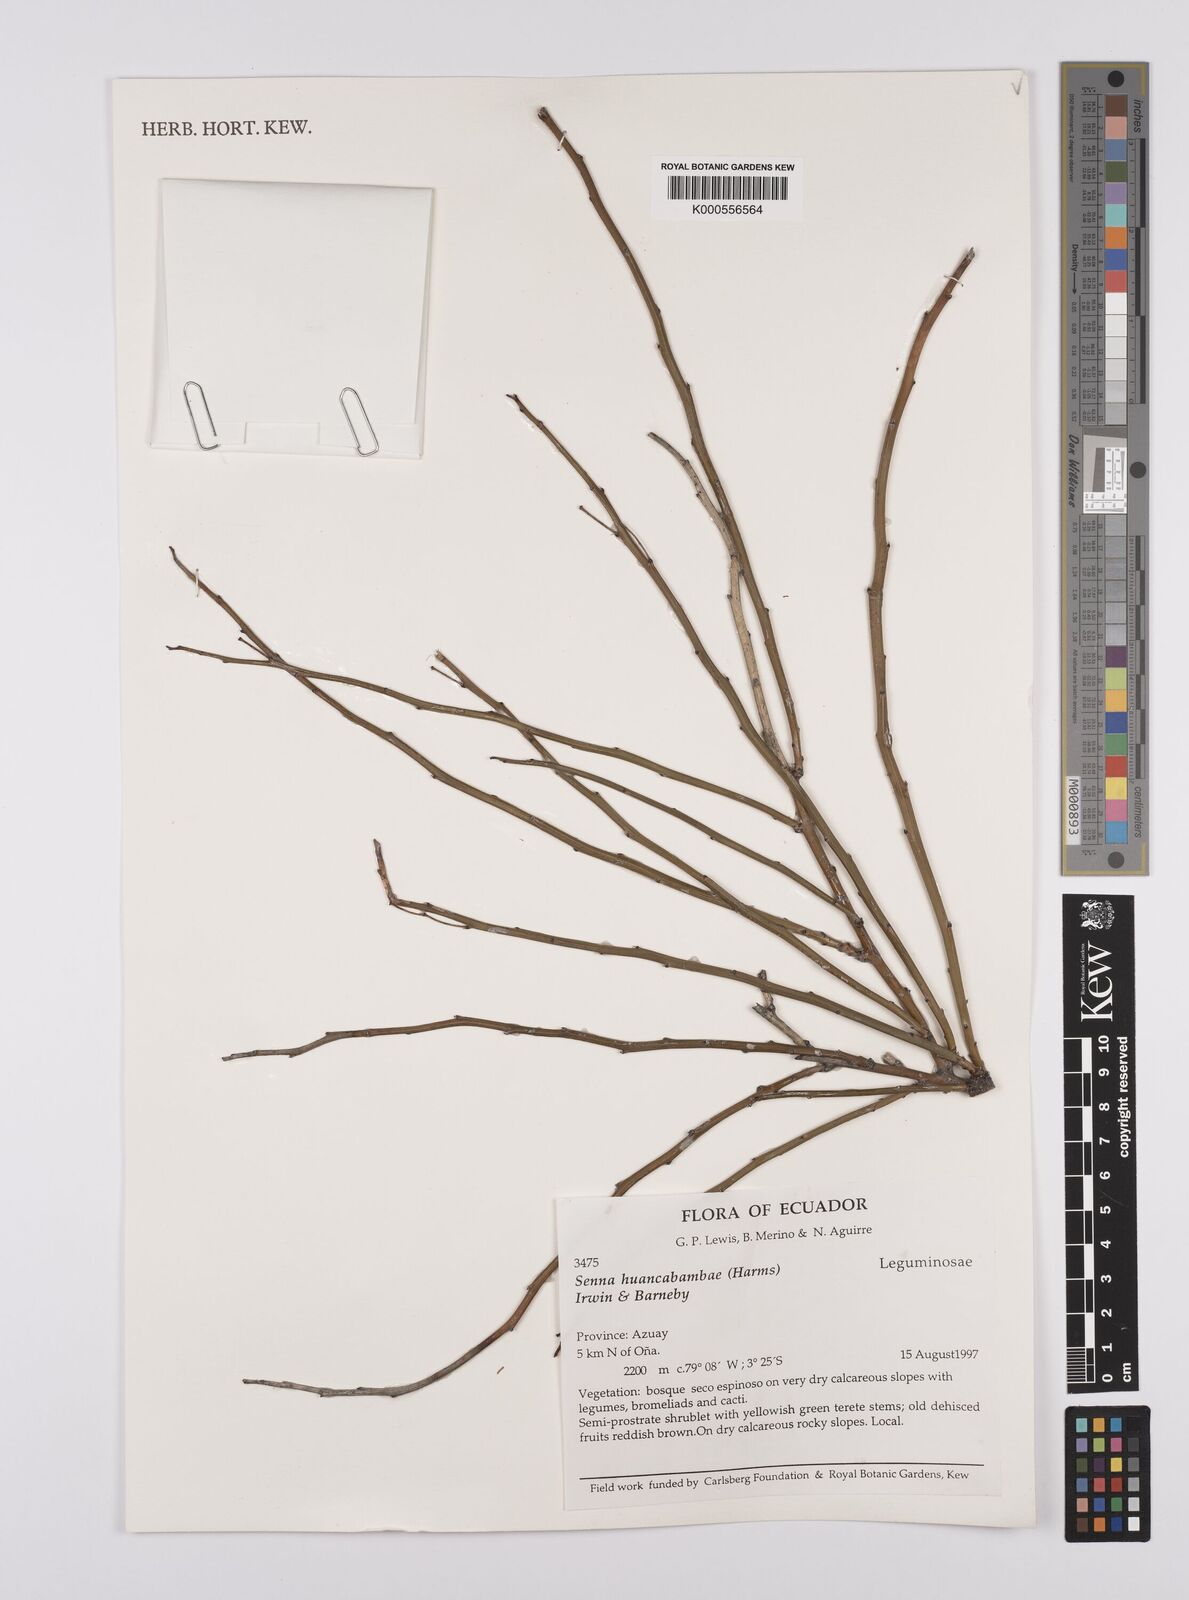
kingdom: Plantae
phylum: Tracheophyta
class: Magnoliopsida
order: Fabales
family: Fabaceae
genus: Senna
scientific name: Senna huancabambae
